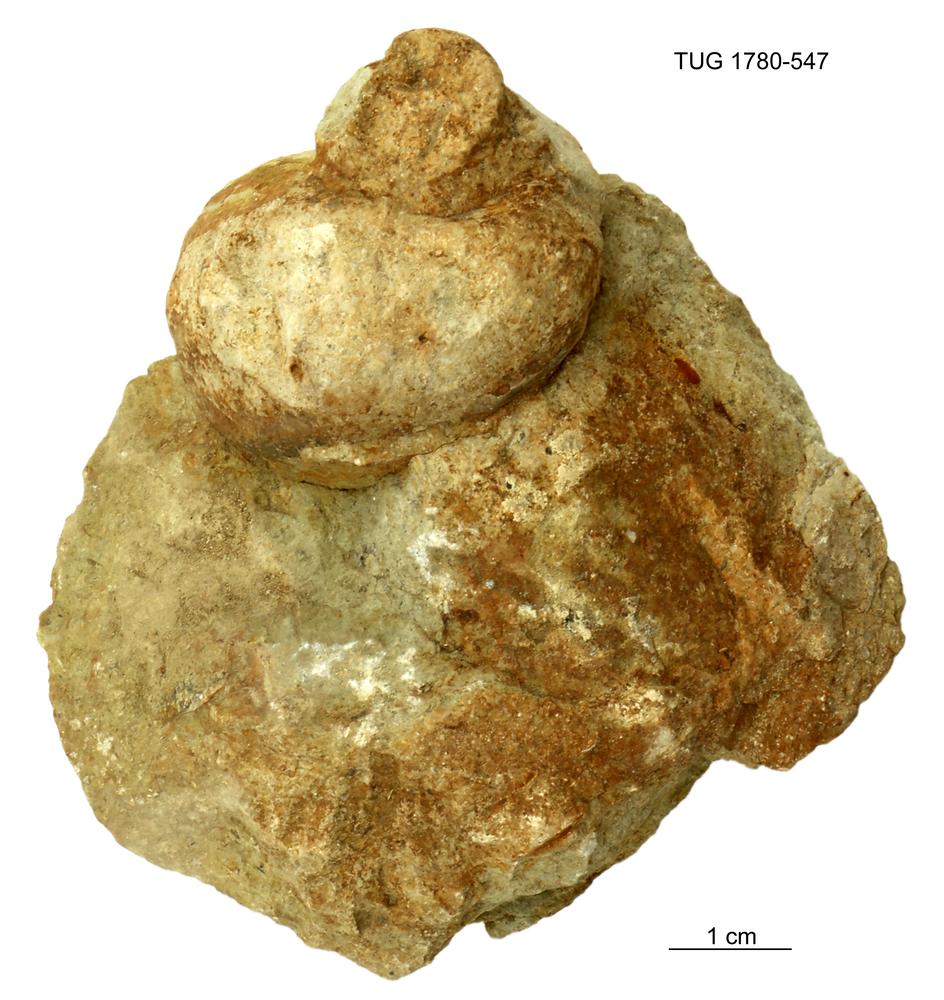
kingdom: Animalia
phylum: Mollusca
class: Gastropoda
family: Holopeidae
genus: Holopea
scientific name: Holopea
